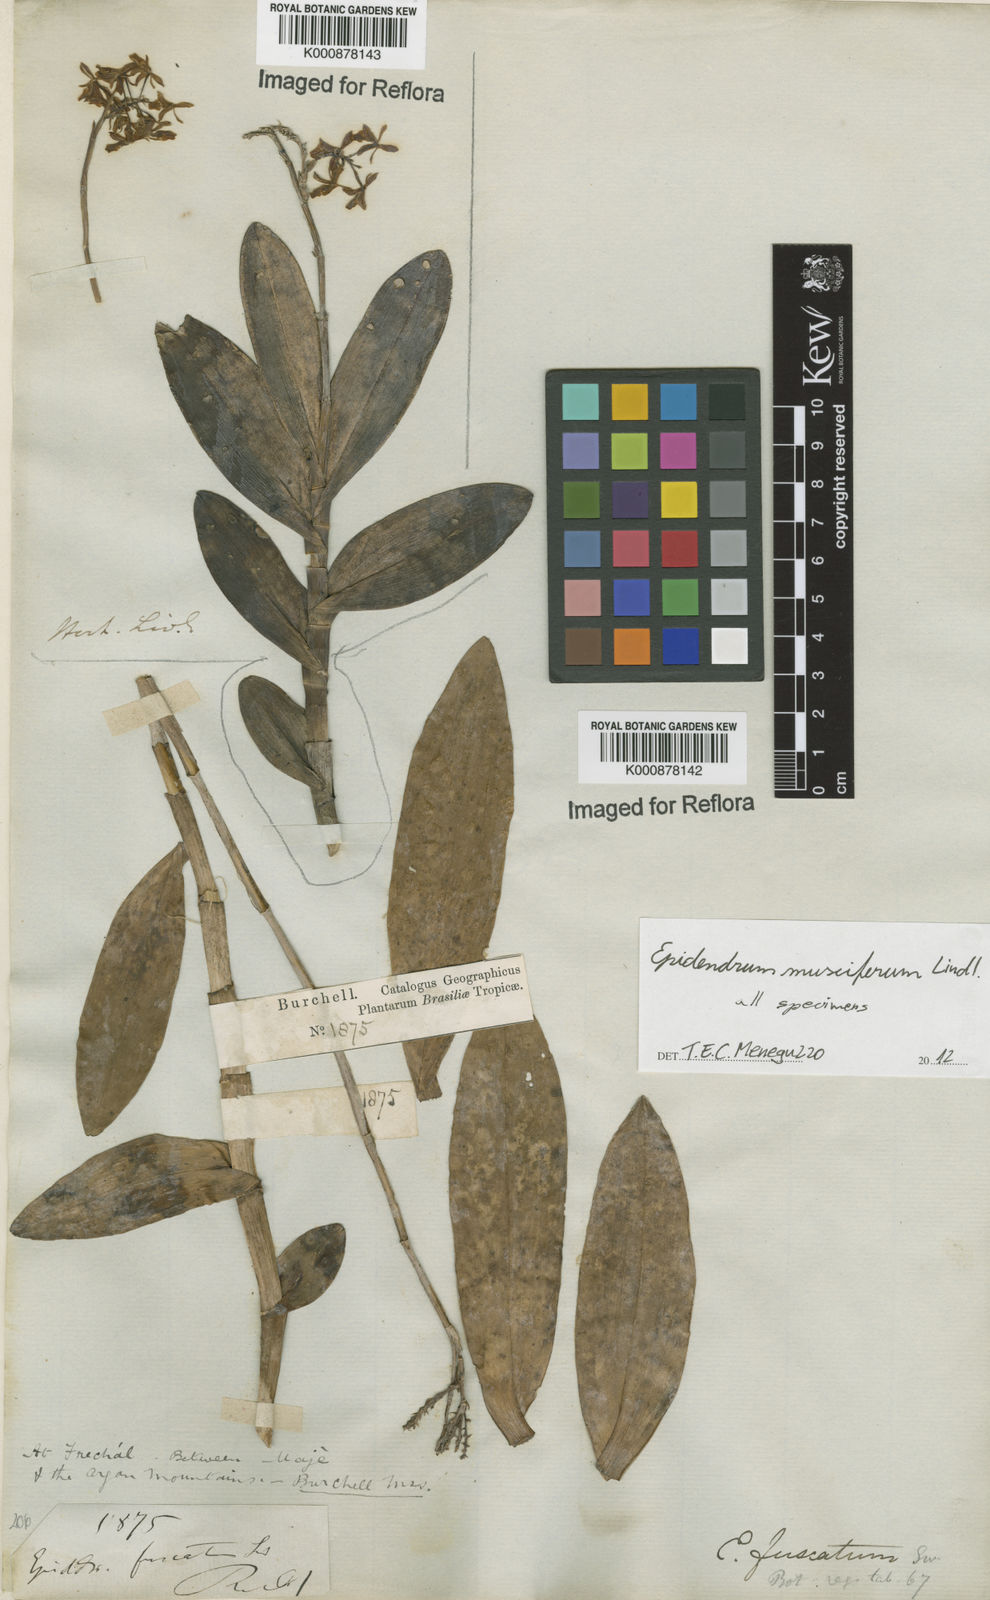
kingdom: Plantae
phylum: Tracheophyta
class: Liliopsida
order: Asparagales
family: Orchidaceae
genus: Epidendrum
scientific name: Epidendrum musciferum
